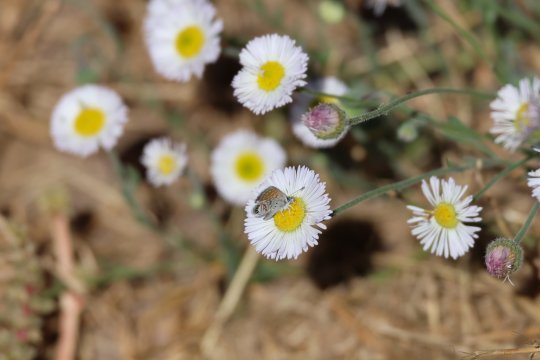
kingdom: Animalia
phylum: Arthropoda
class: Insecta
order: Lepidoptera
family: Lycaenidae
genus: Brephidium
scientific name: Brephidium exilis
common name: Western Pygmy-Blue
